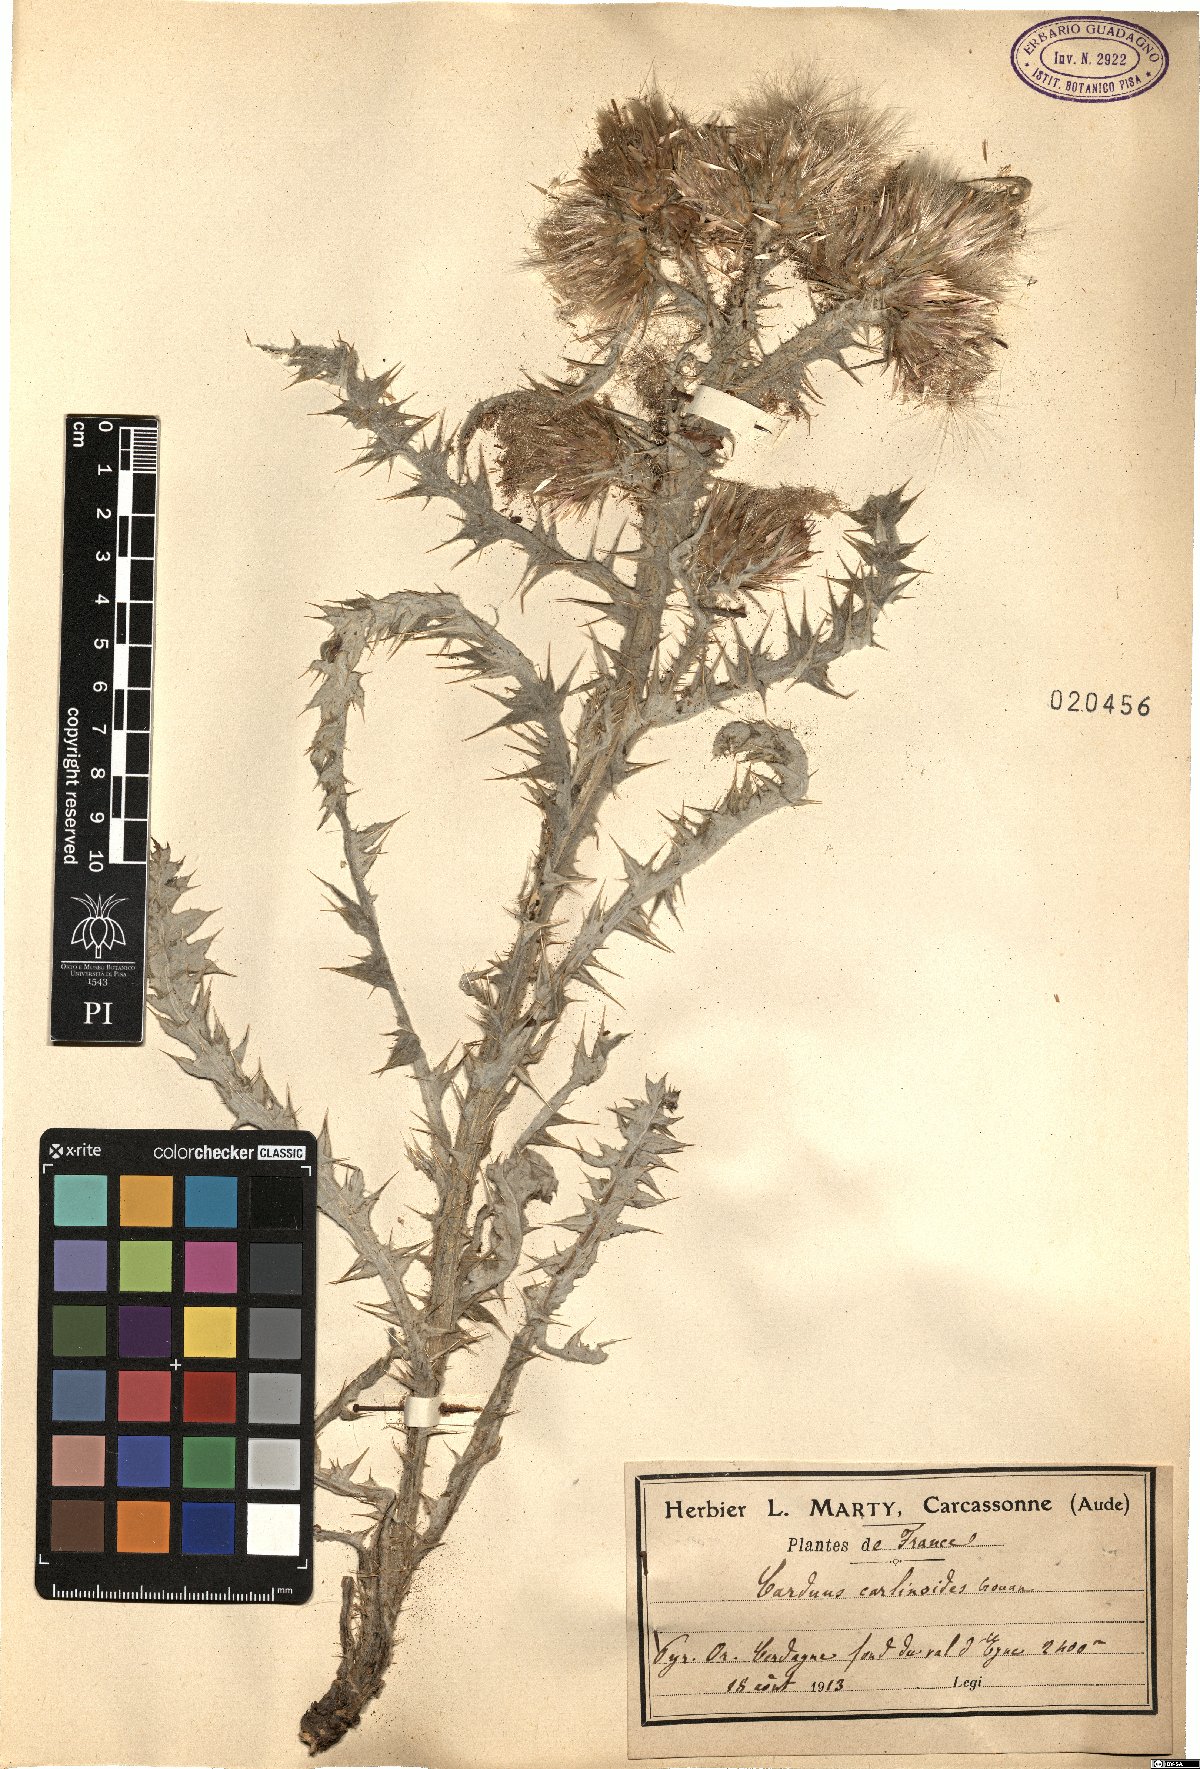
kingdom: Plantae
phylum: Tracheophyta
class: Magnoliopsida
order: Asterales
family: Asteraceae
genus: Carduus
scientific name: Carduus carlinoides
